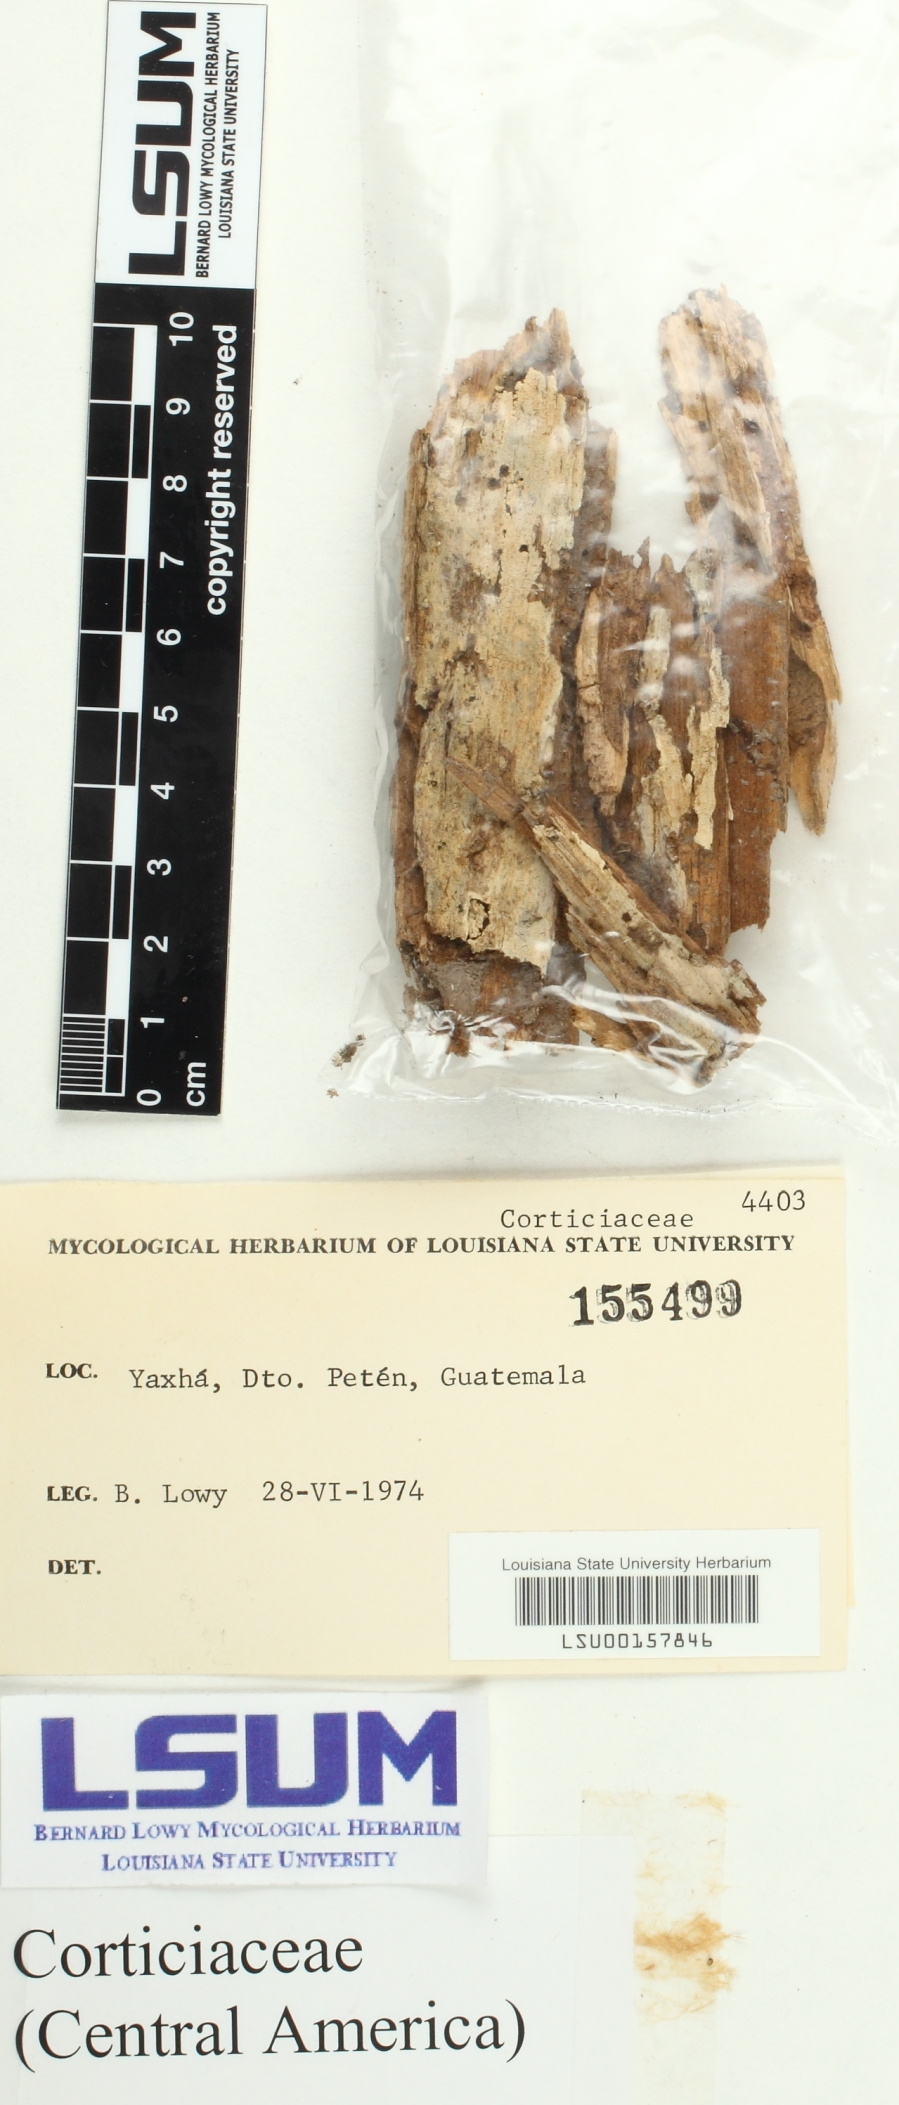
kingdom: Fungi
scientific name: Fungi
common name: Fungi
